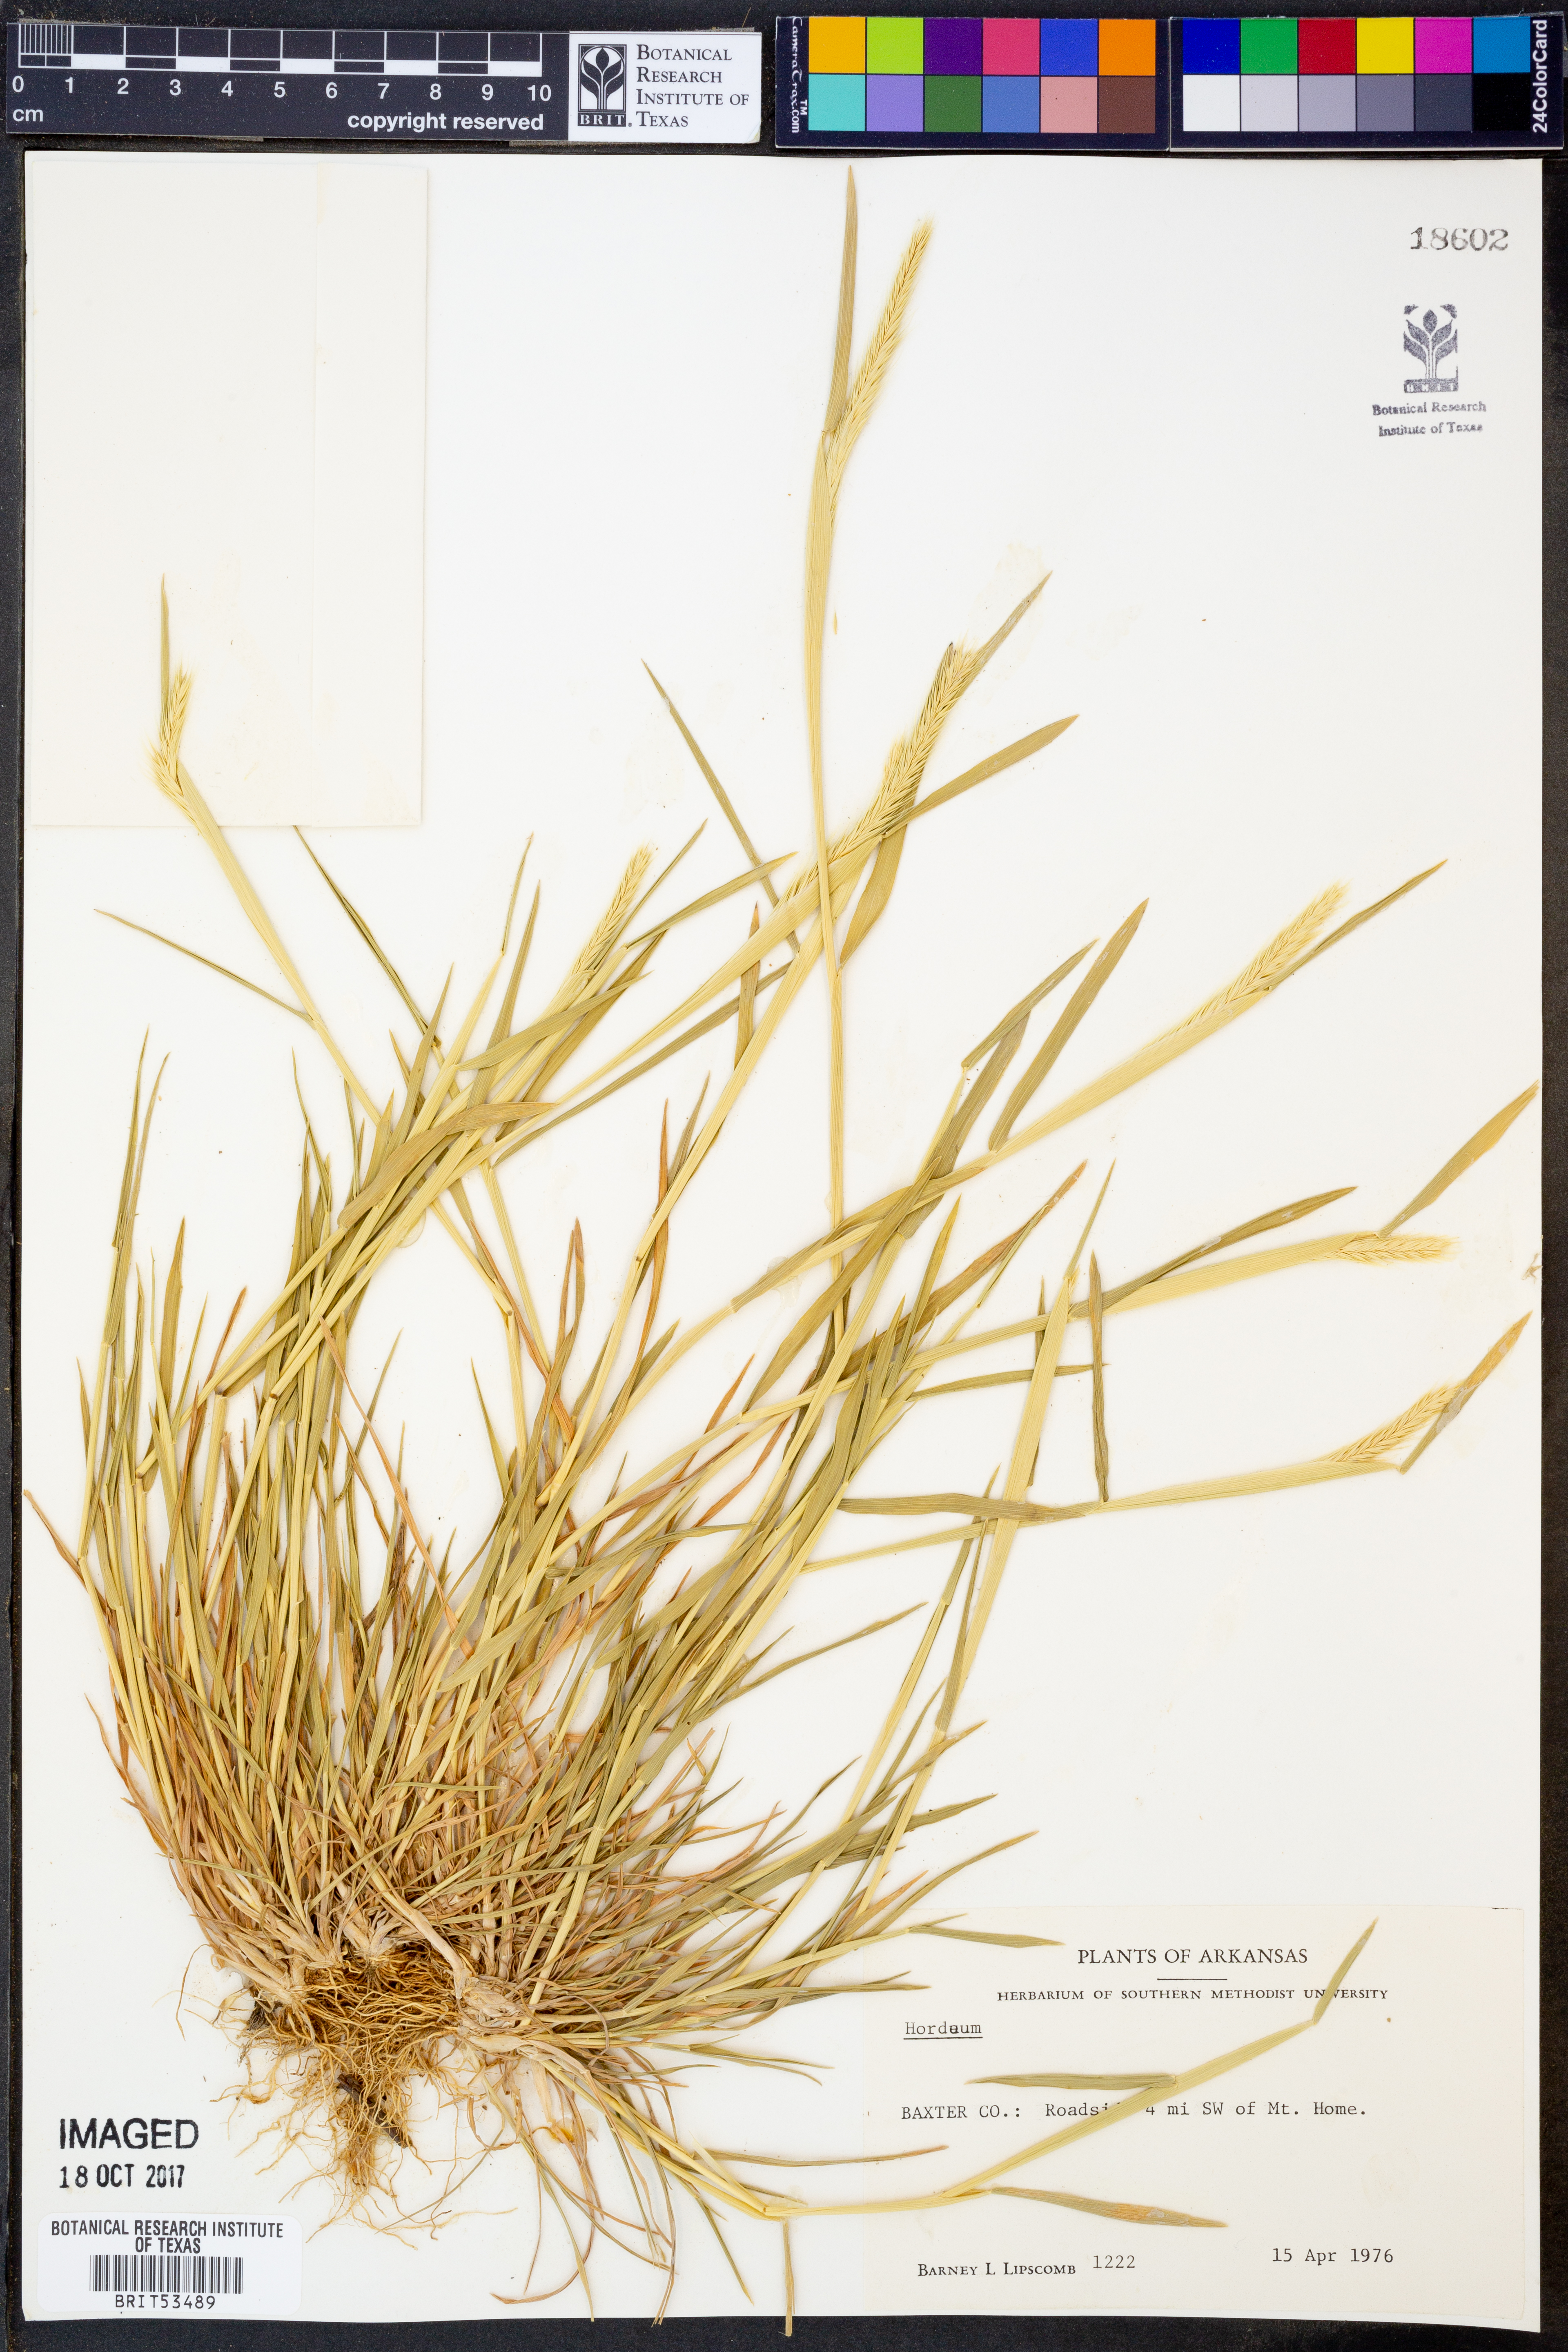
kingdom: Plantae
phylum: Tracheophyta
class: Liliopsida
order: Poales
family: Poaceae
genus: Hordeum
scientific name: Hordeum
